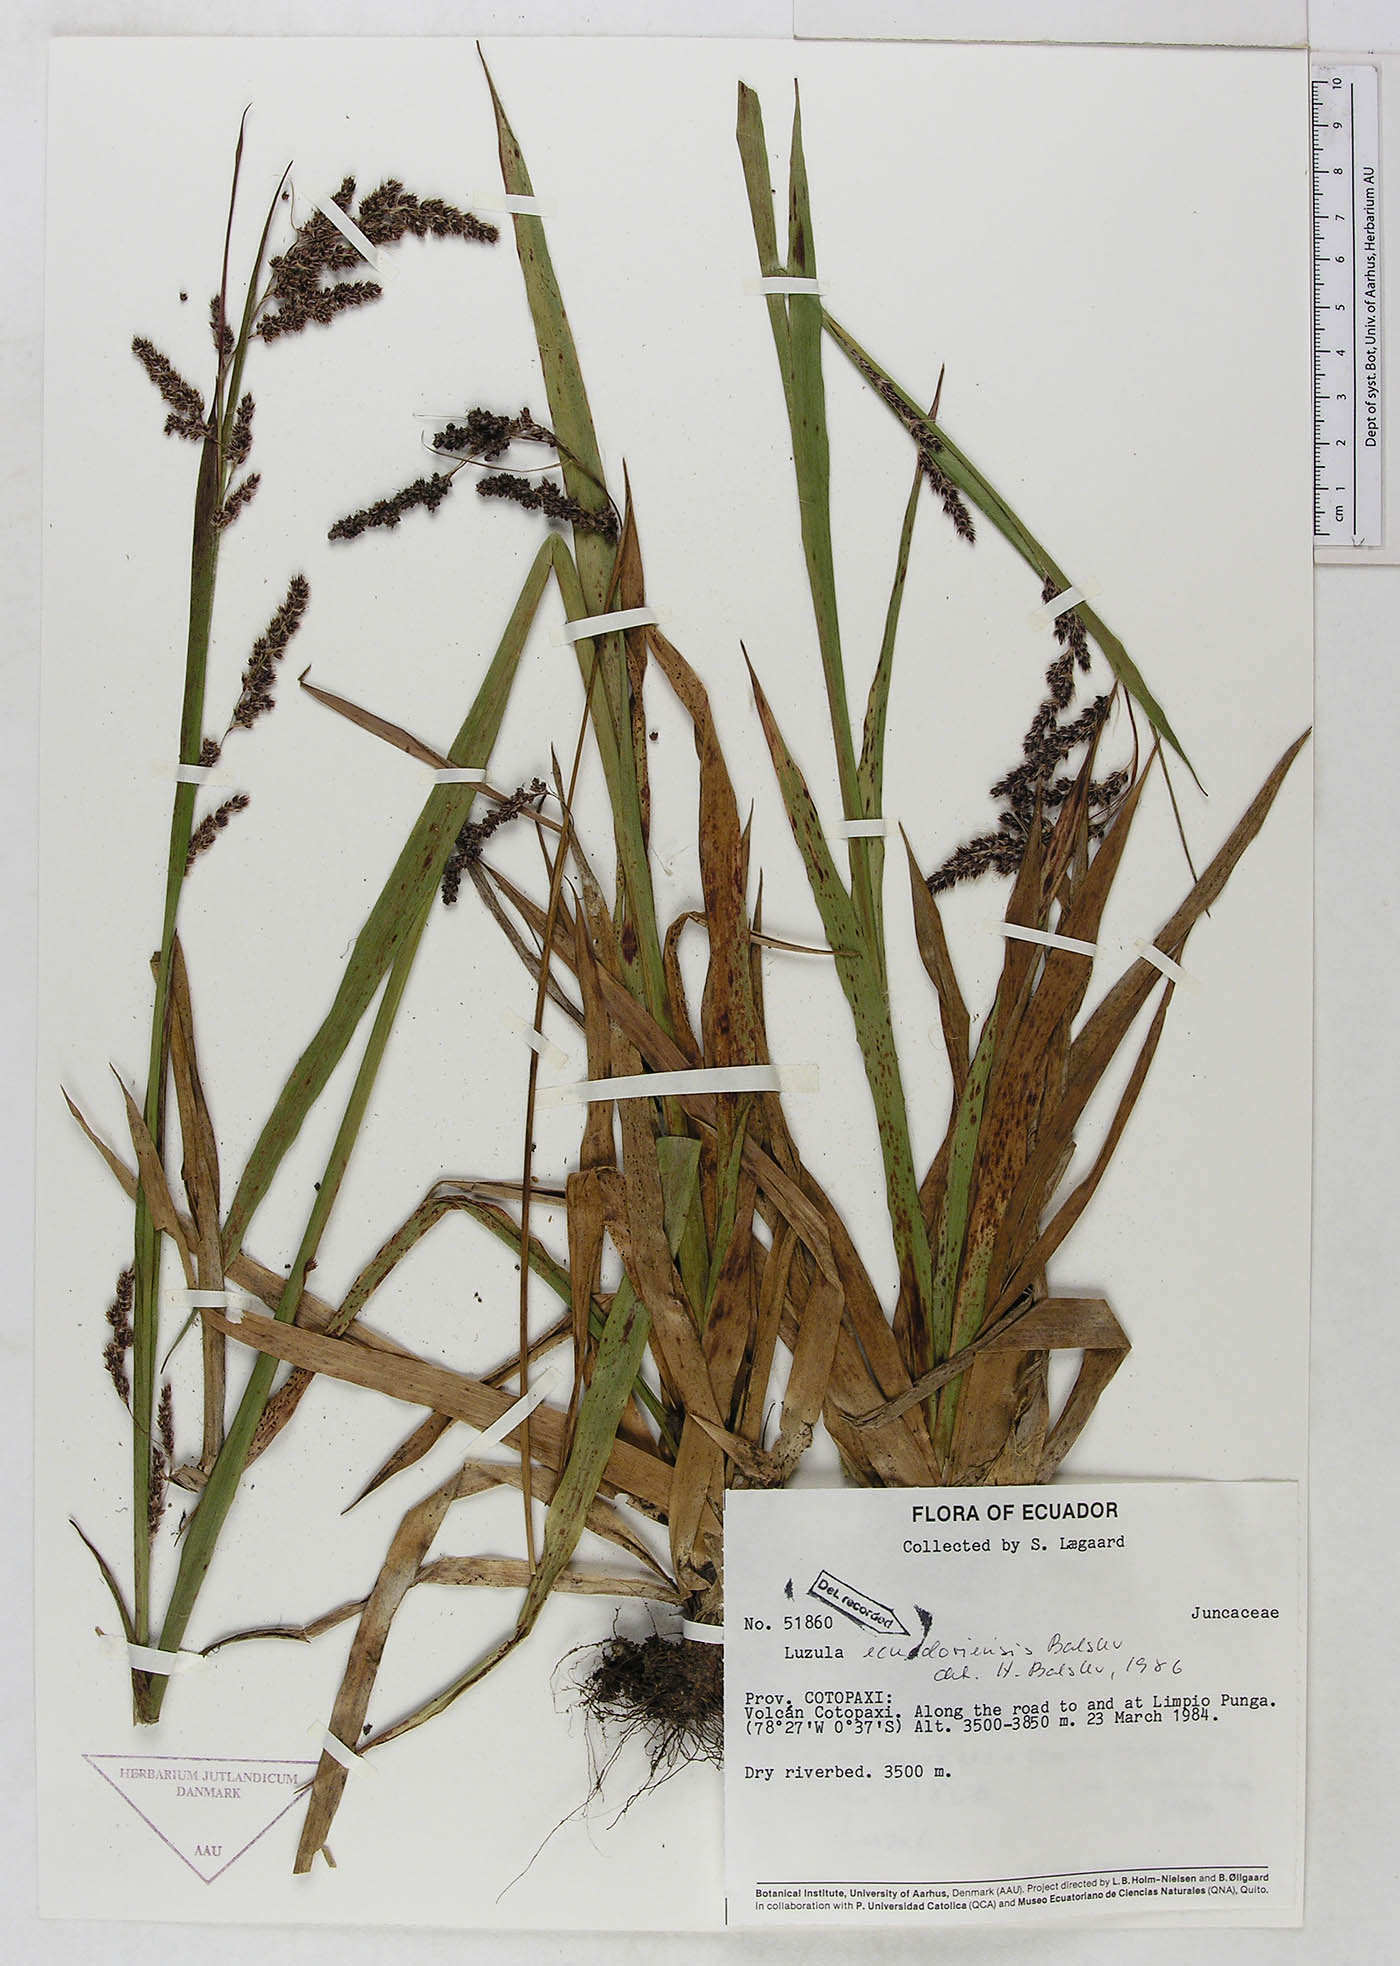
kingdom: Plantae
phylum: Tracheophyta
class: Liliopsida
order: Poales
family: Juncaceae
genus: Luzula
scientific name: Luzula ecuadoriensis
